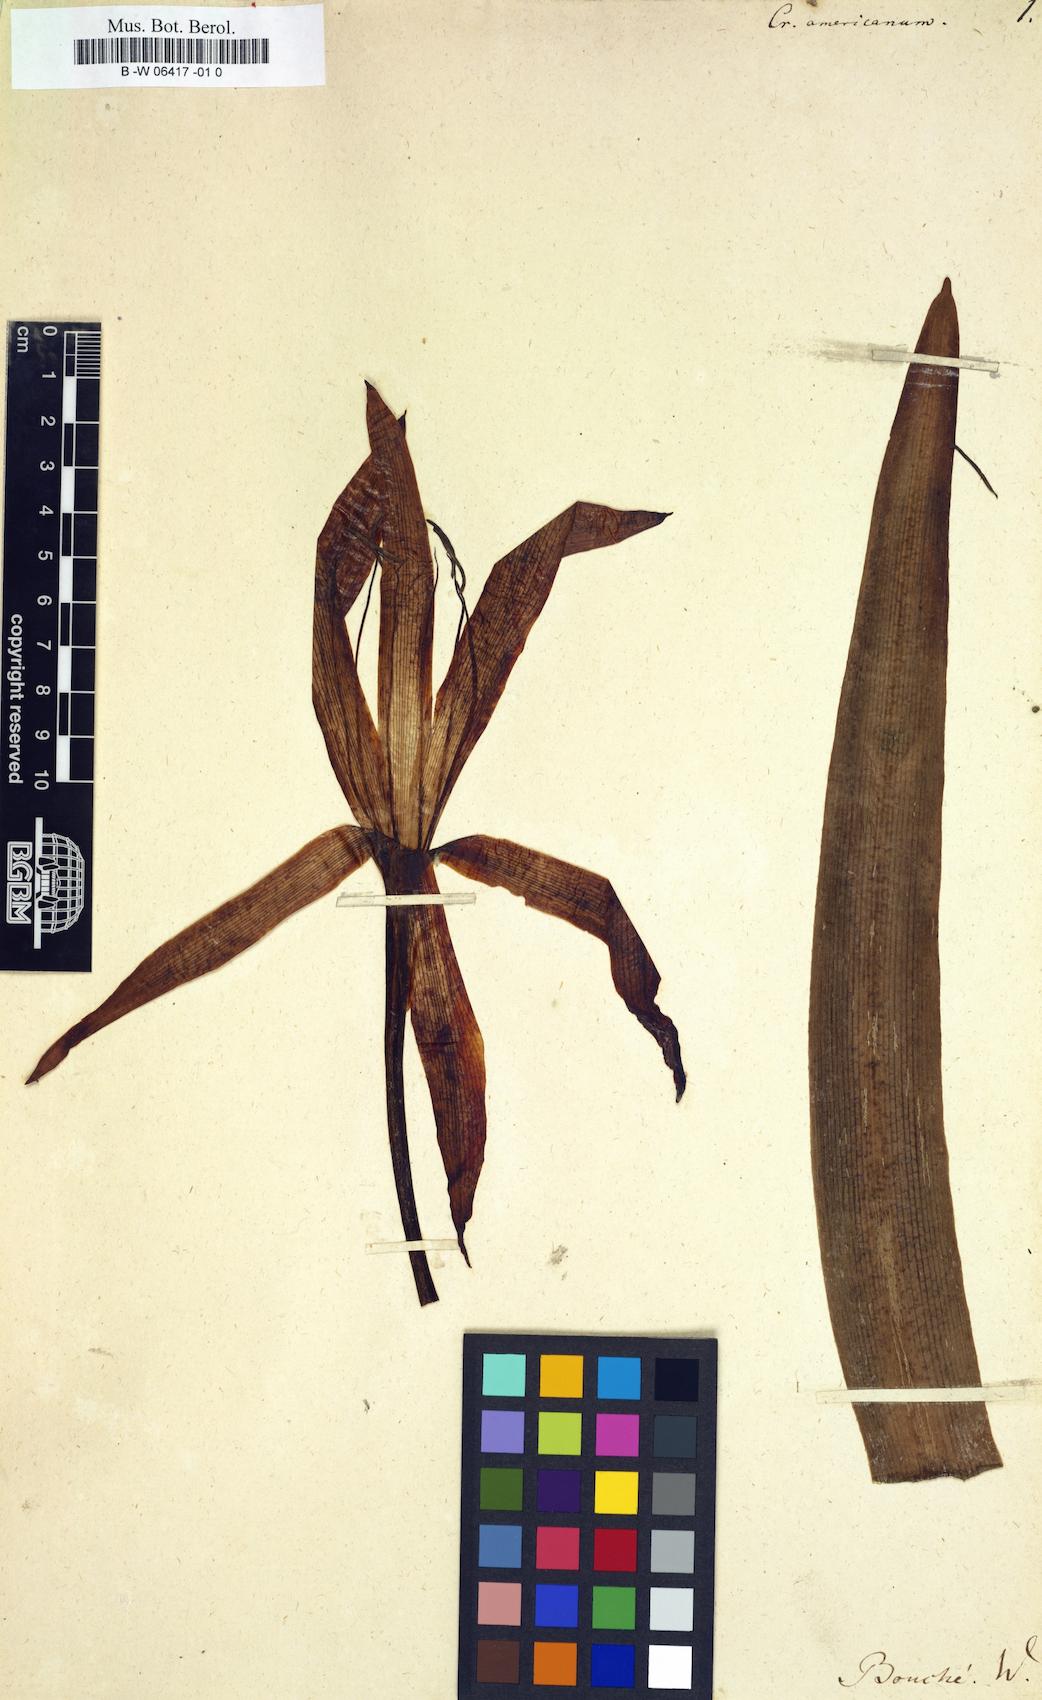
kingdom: Plantae
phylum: Tracheophyta
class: Liliopsida
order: Asparagales
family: Amaryllidaceae
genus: Crinum
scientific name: Crinum americanum
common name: Florida swamp-lily
